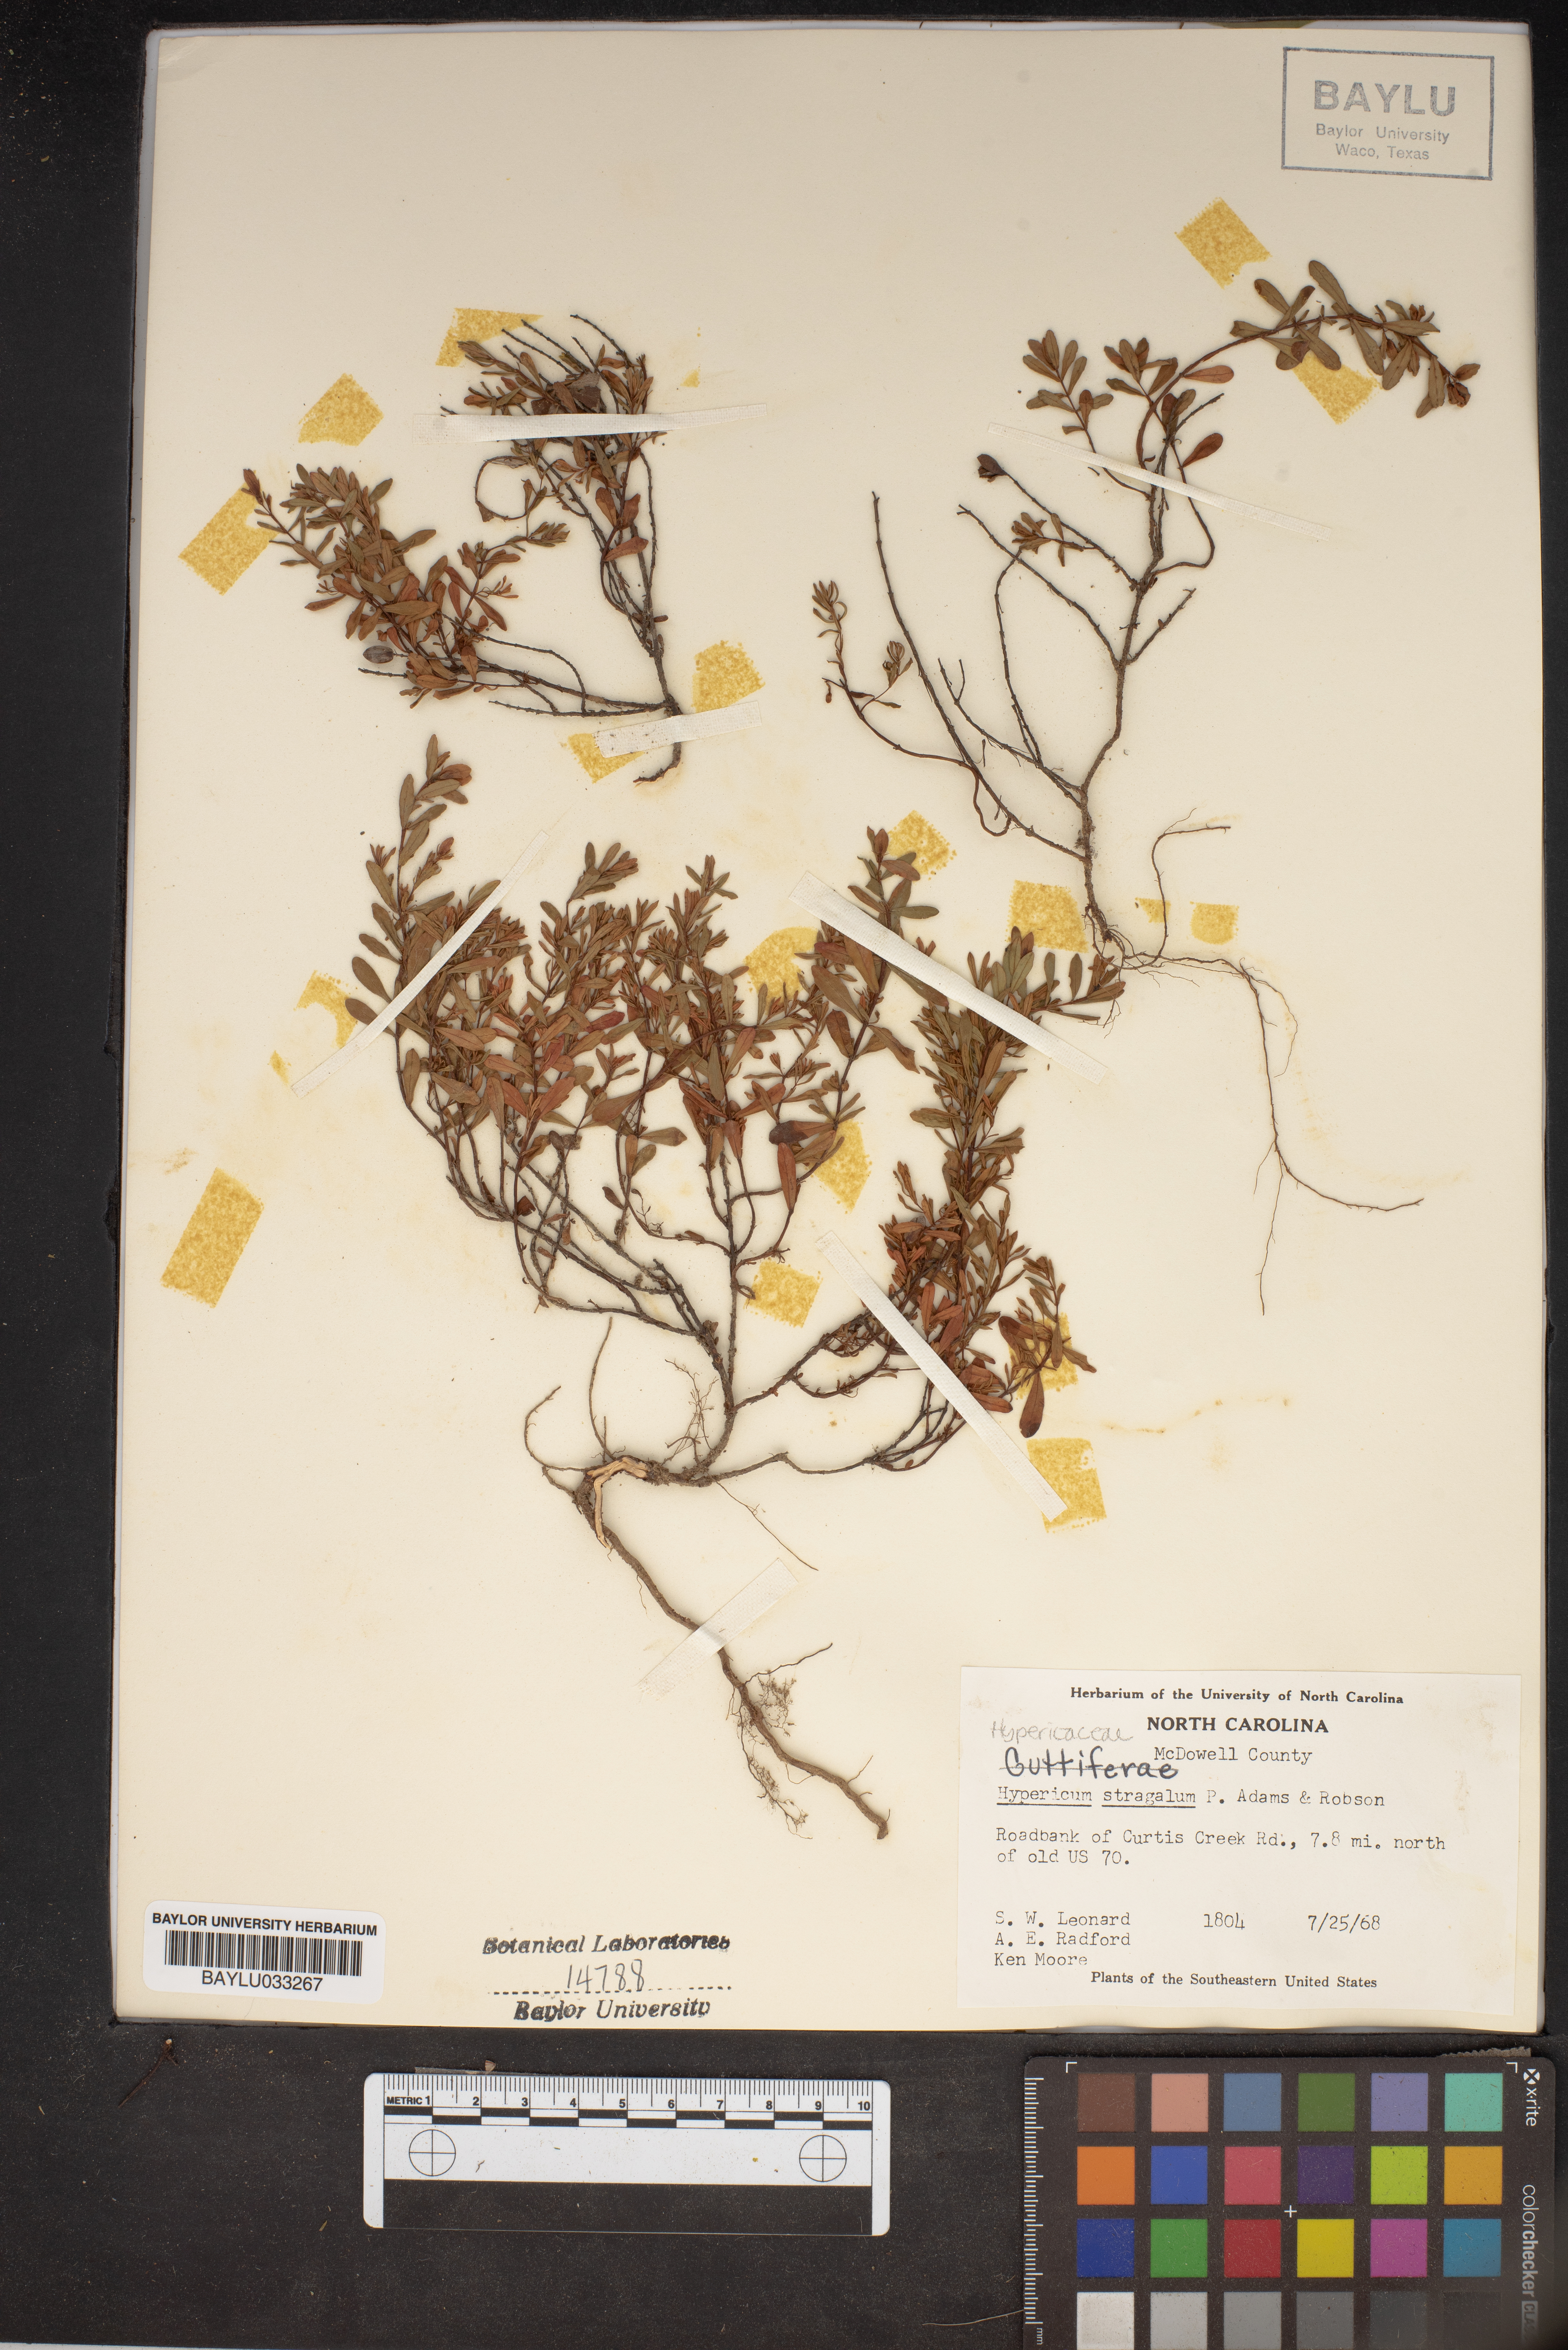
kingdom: Plantae
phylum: Tracheophyta
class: Magnoliopsida
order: Malpighiales
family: Hypericaceae
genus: Hypericum
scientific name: Hypericum hypericoides
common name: St. andrew's cross
